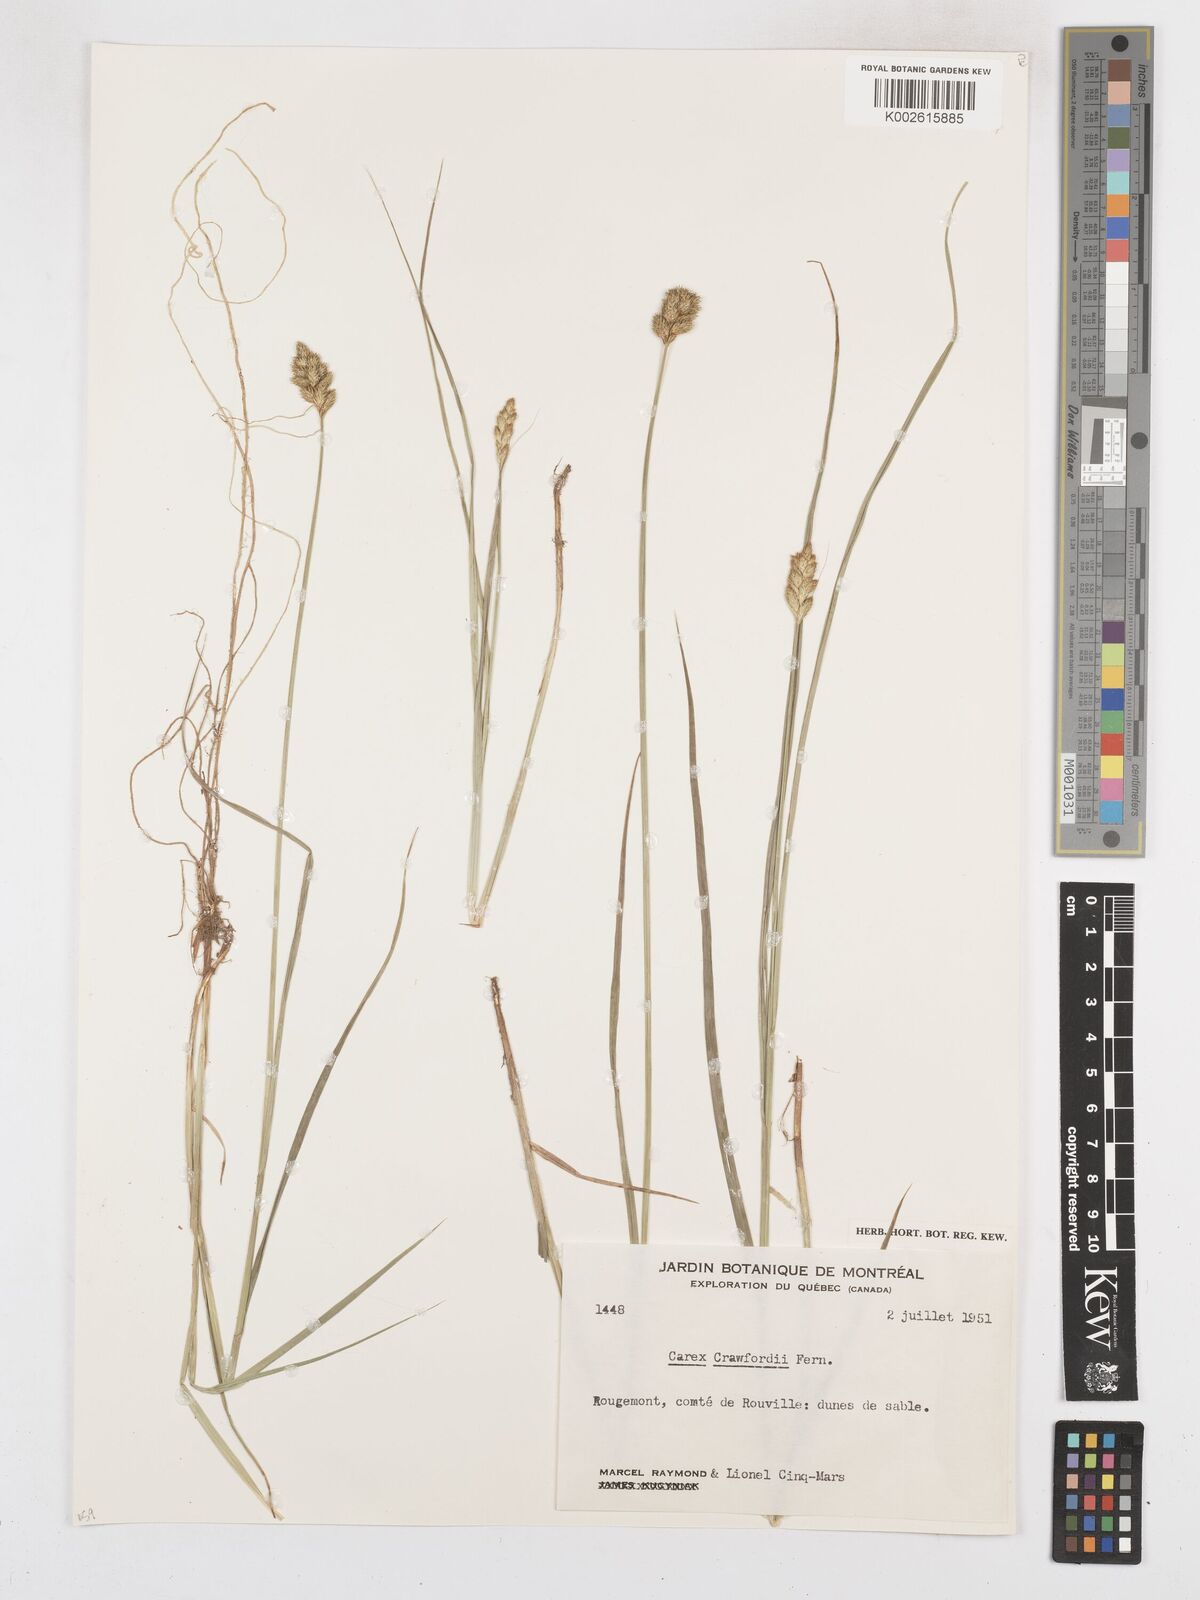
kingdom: Plantae
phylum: Tracheophyta
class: Liliopsida
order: Poales
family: Cyperaceae
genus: Carex
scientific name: Carex crawfordii
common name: Crawford's sedge
